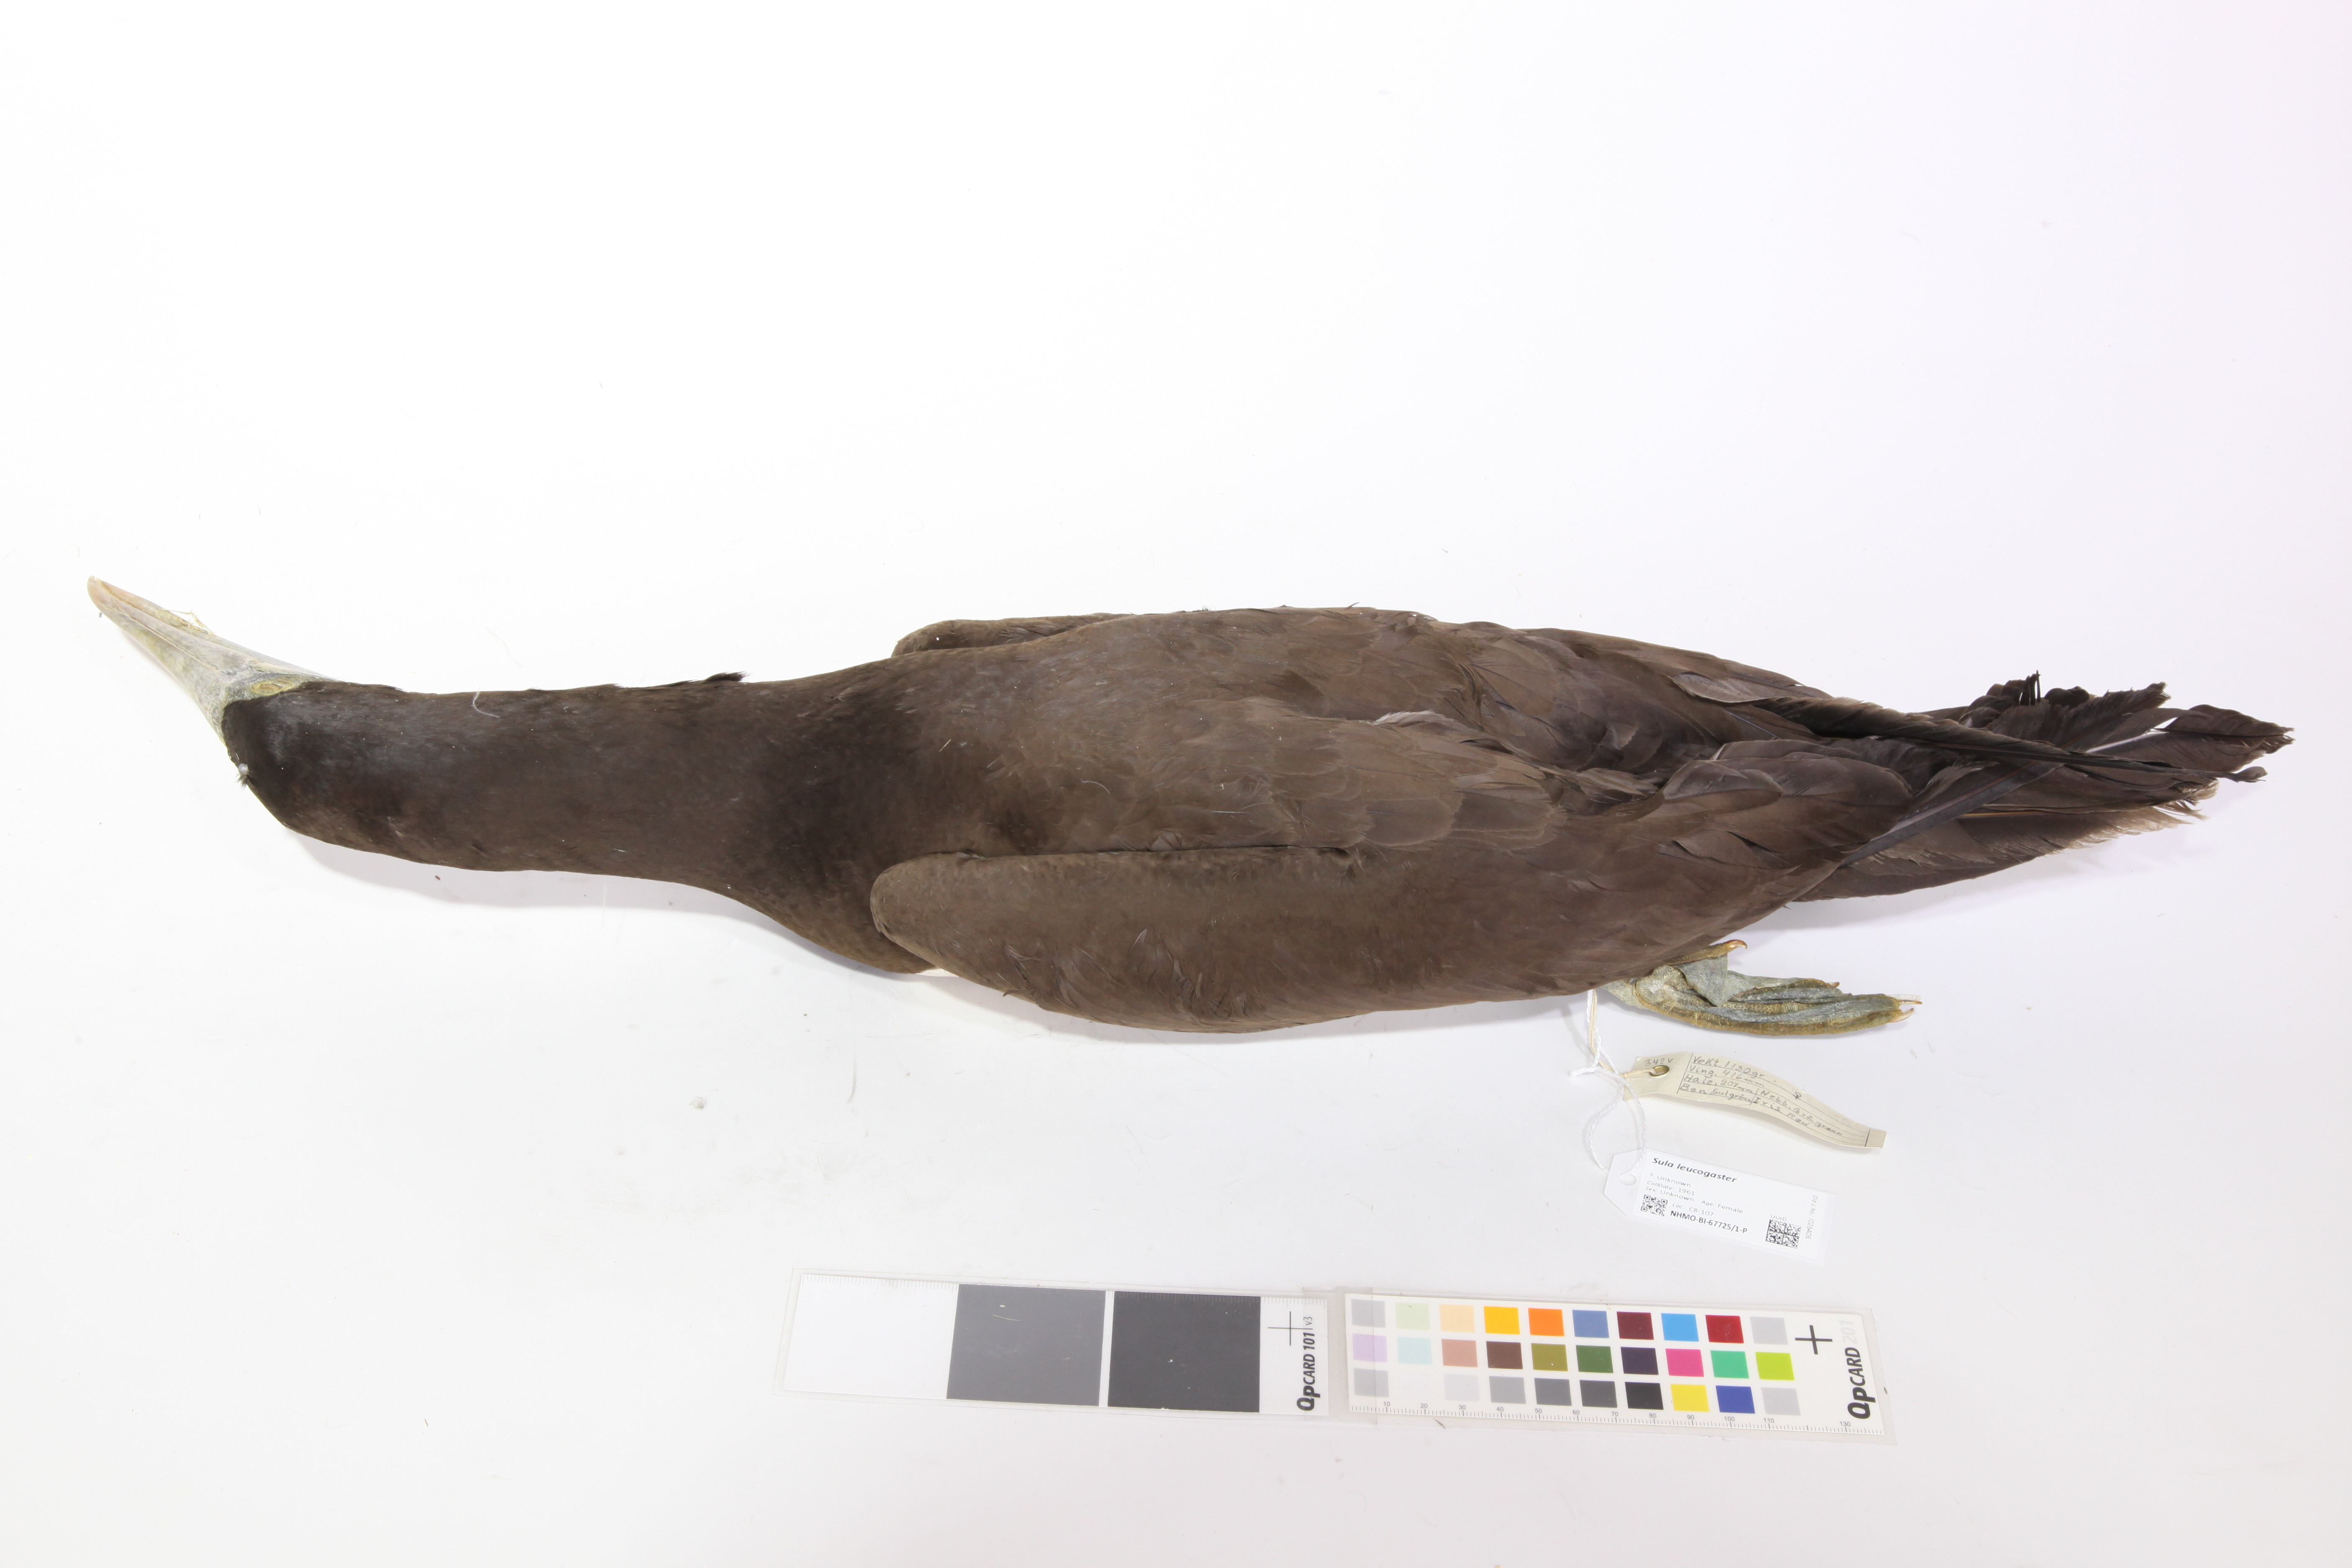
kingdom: Animalia
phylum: Chordata
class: Aves
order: Suliformes
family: Sulidae
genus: Sula
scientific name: Sula leucogaster
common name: Brown booby
